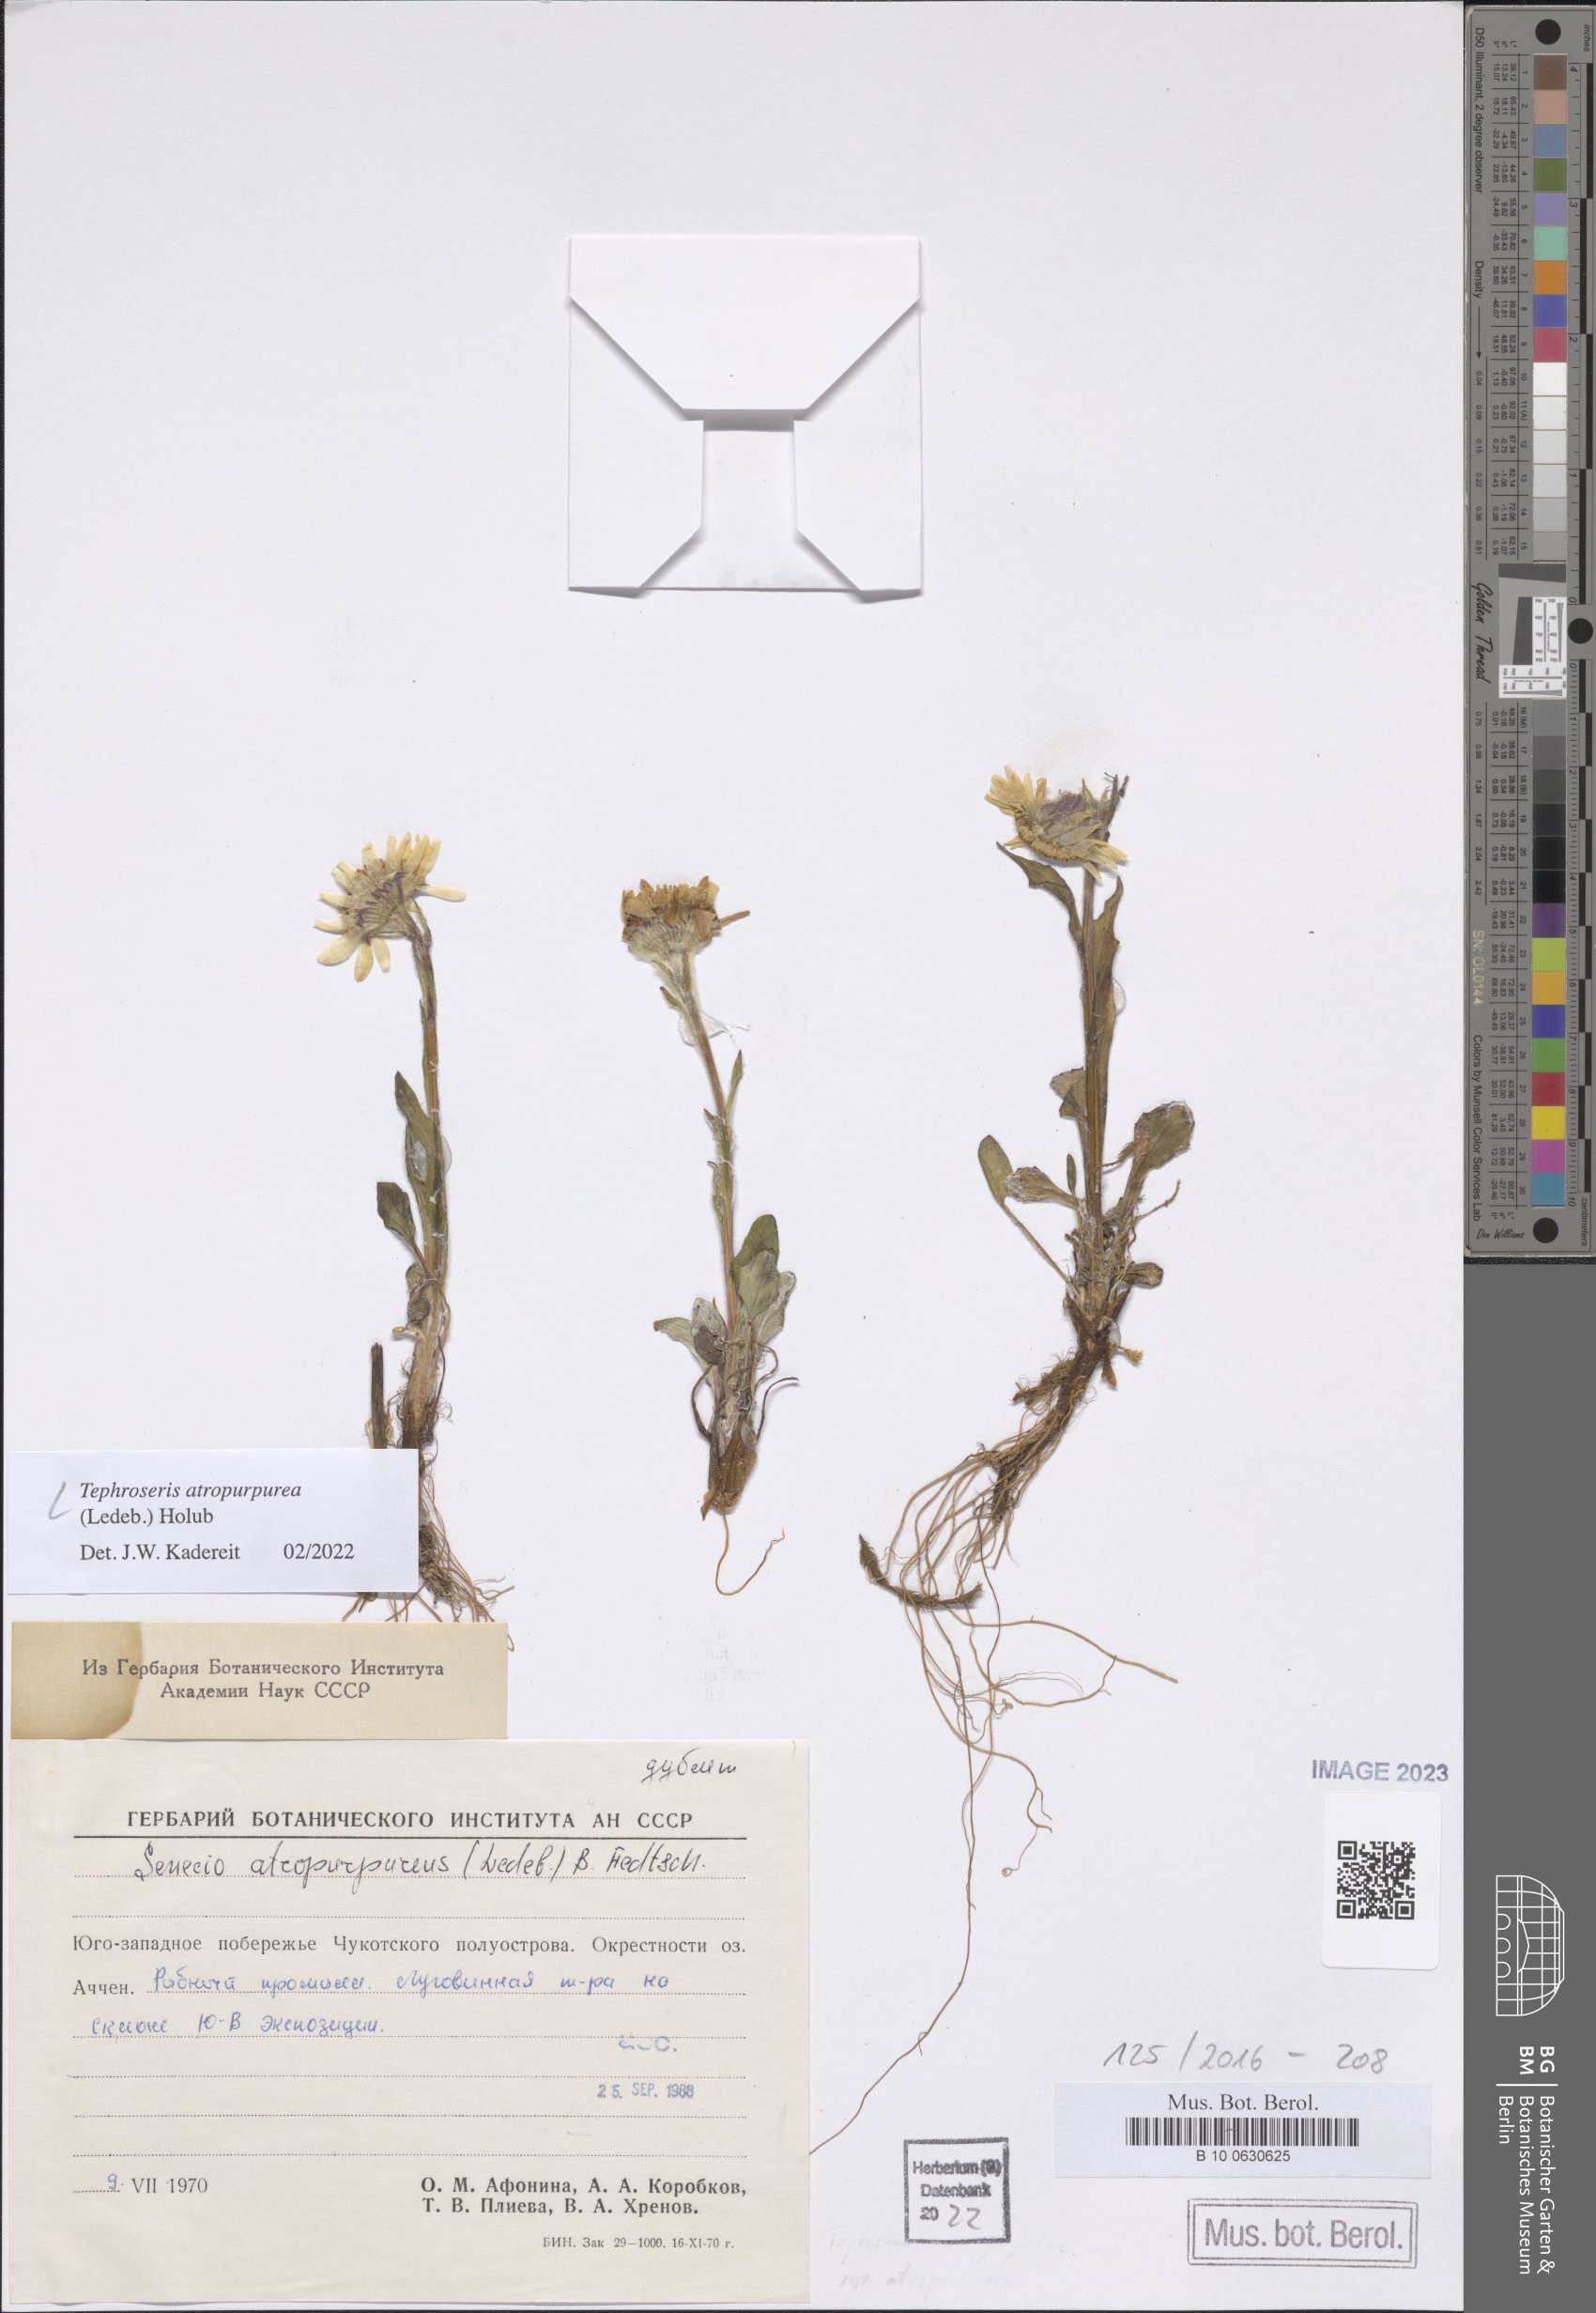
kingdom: Plantae
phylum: Tracheophyta
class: Magnoliopsida
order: Asterales
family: Asteraceae
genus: Tephroseris
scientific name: Tephroseris integrifolia
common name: Field fleawort
